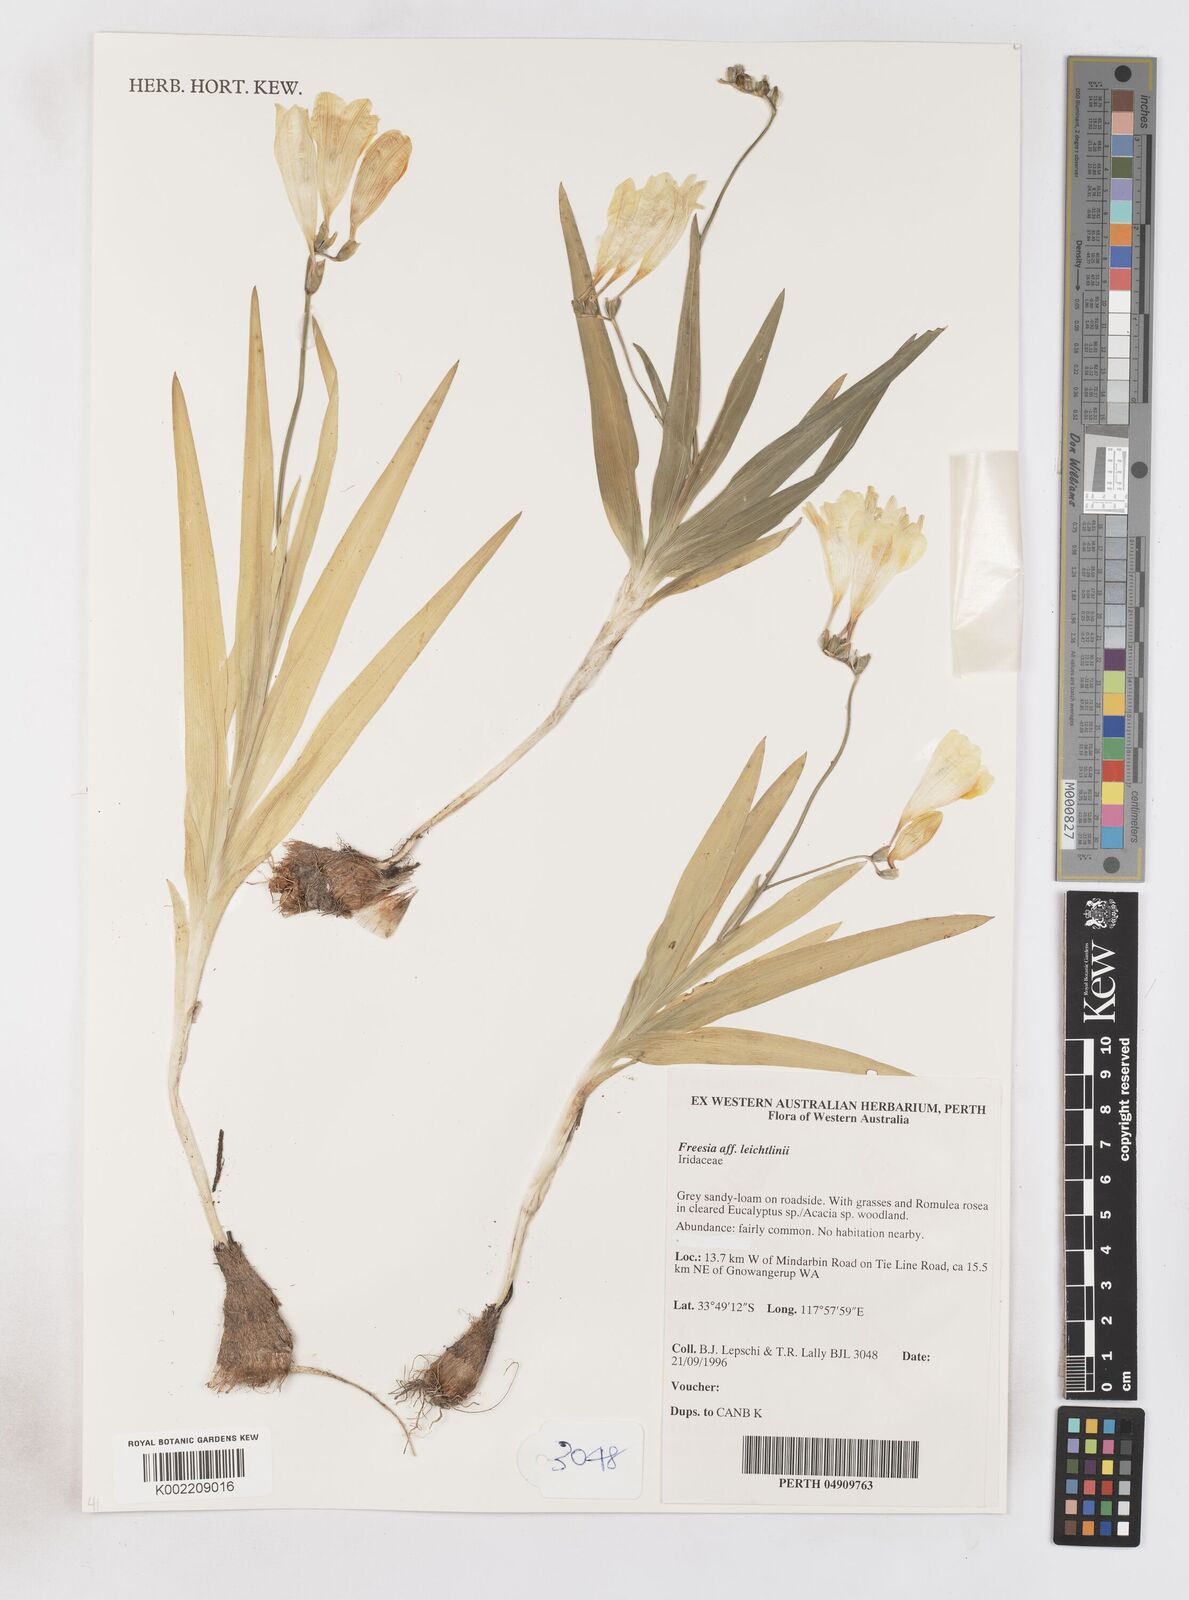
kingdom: Plantae
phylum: Tracheophyta
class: Liliopsida
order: Asparagales
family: Iridaceae
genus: Freesia
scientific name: Freesia leichtlinii
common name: Freesia
